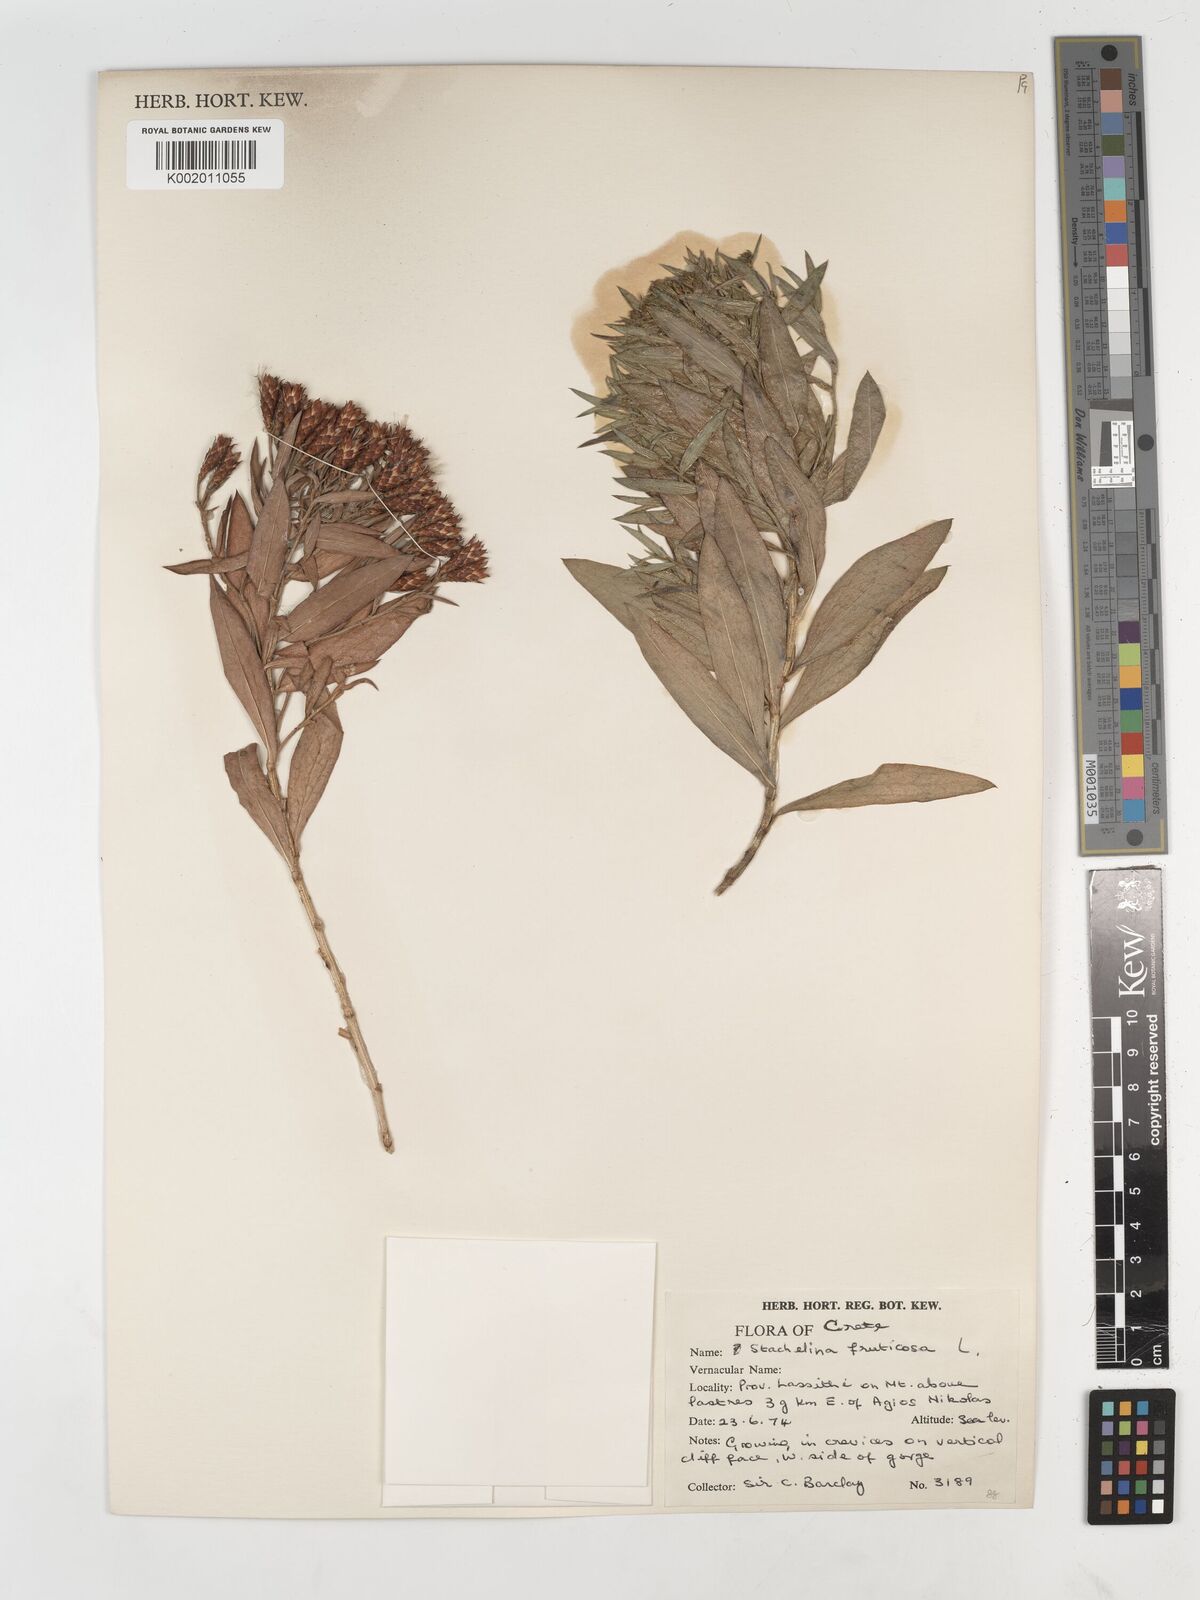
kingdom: Plantae
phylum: Tracheophyta
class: Magnoliopsida
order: Asterales
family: Asteraceae
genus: Hirtellina
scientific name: Hirtellina fruticosa
